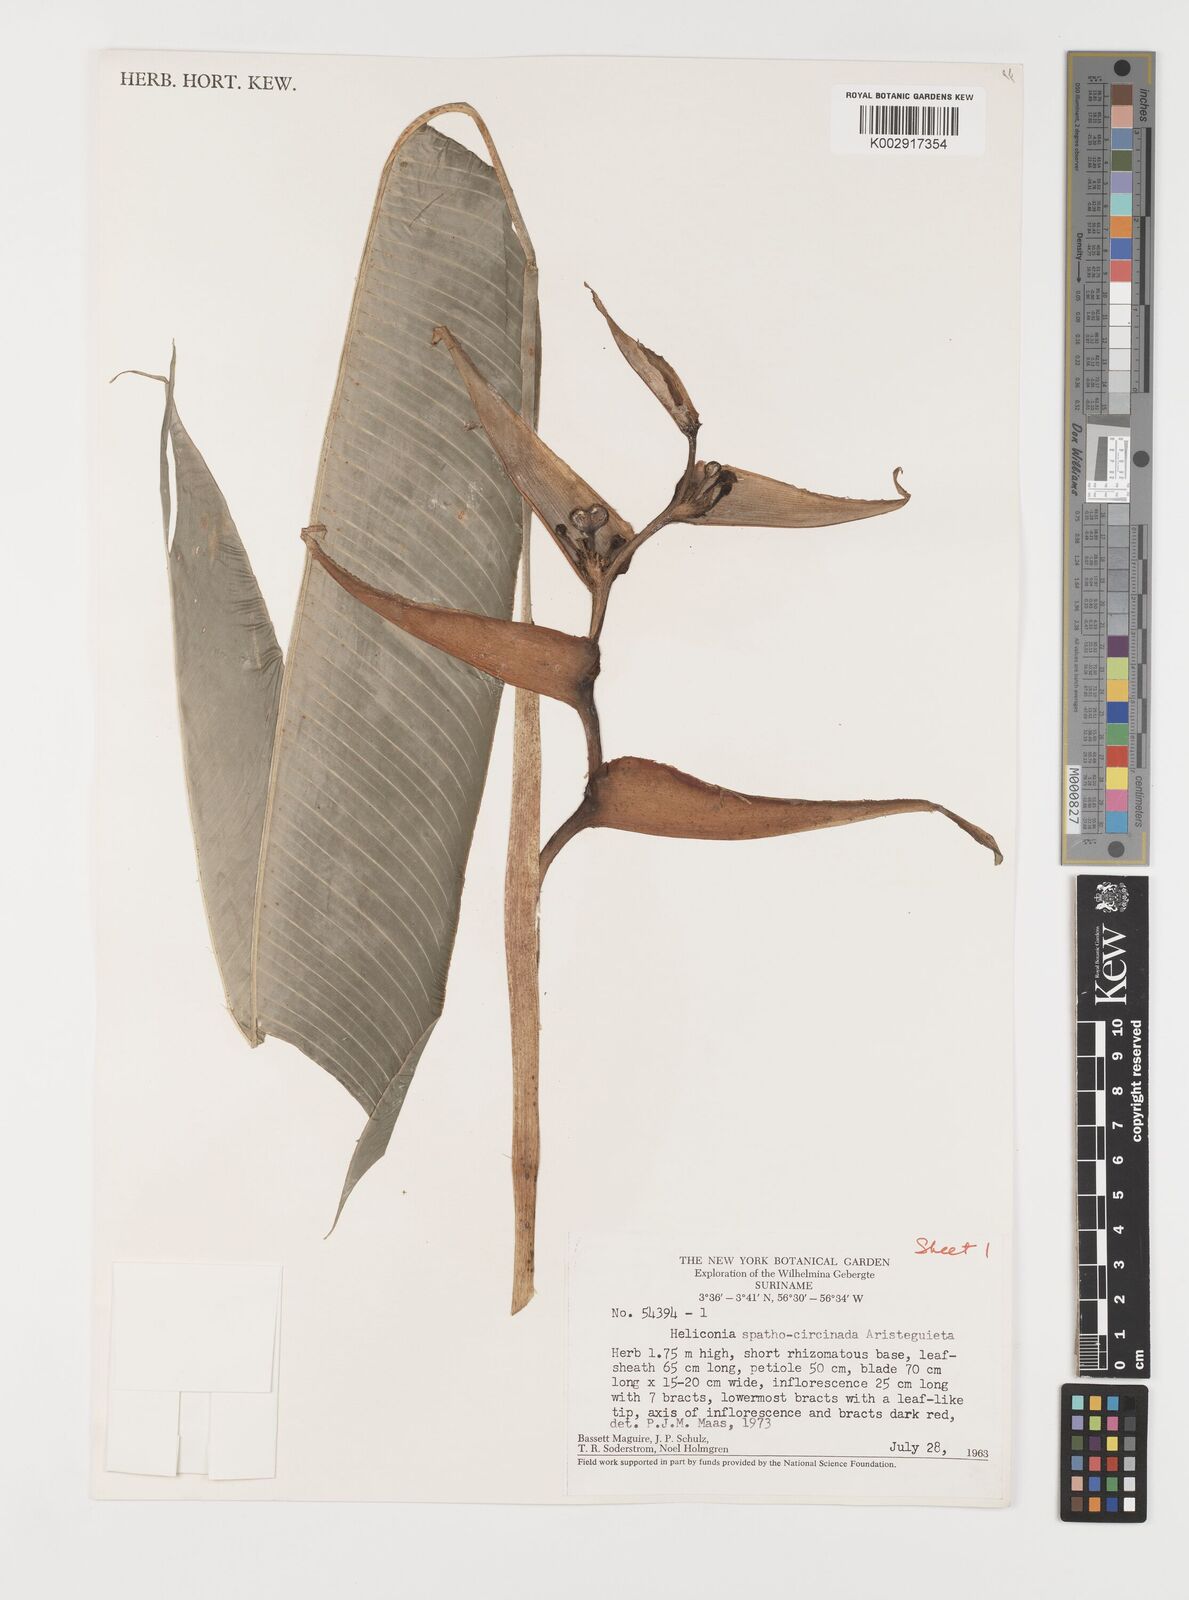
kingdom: Plantae
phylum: Tracheophyta
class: Liliopsida
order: Zingiberales
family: Heliconiaceae
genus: Heliconia
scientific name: Heliconia spathocircinata
